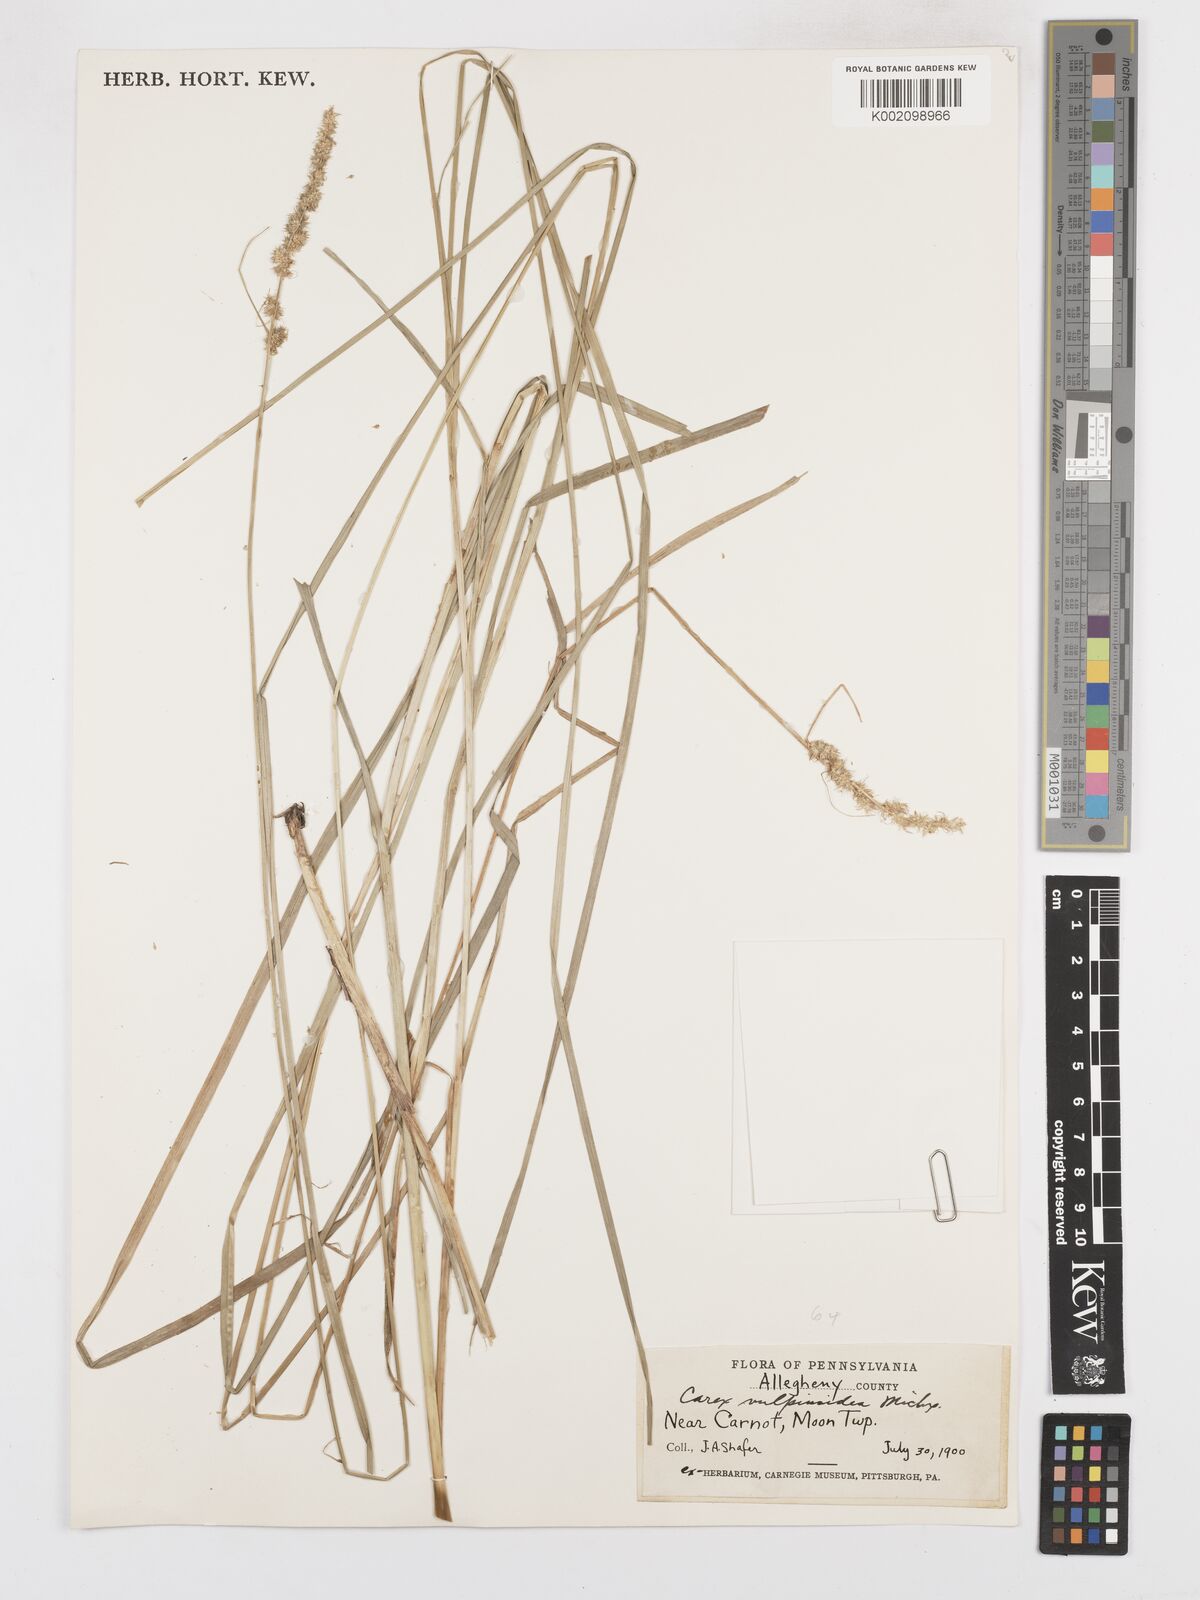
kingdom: Plantae
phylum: Tracheophyta
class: Liliopsida
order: Poales
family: Cyperaceae
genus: Carex
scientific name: Carex vulpinoidea
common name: American fox-sedge
